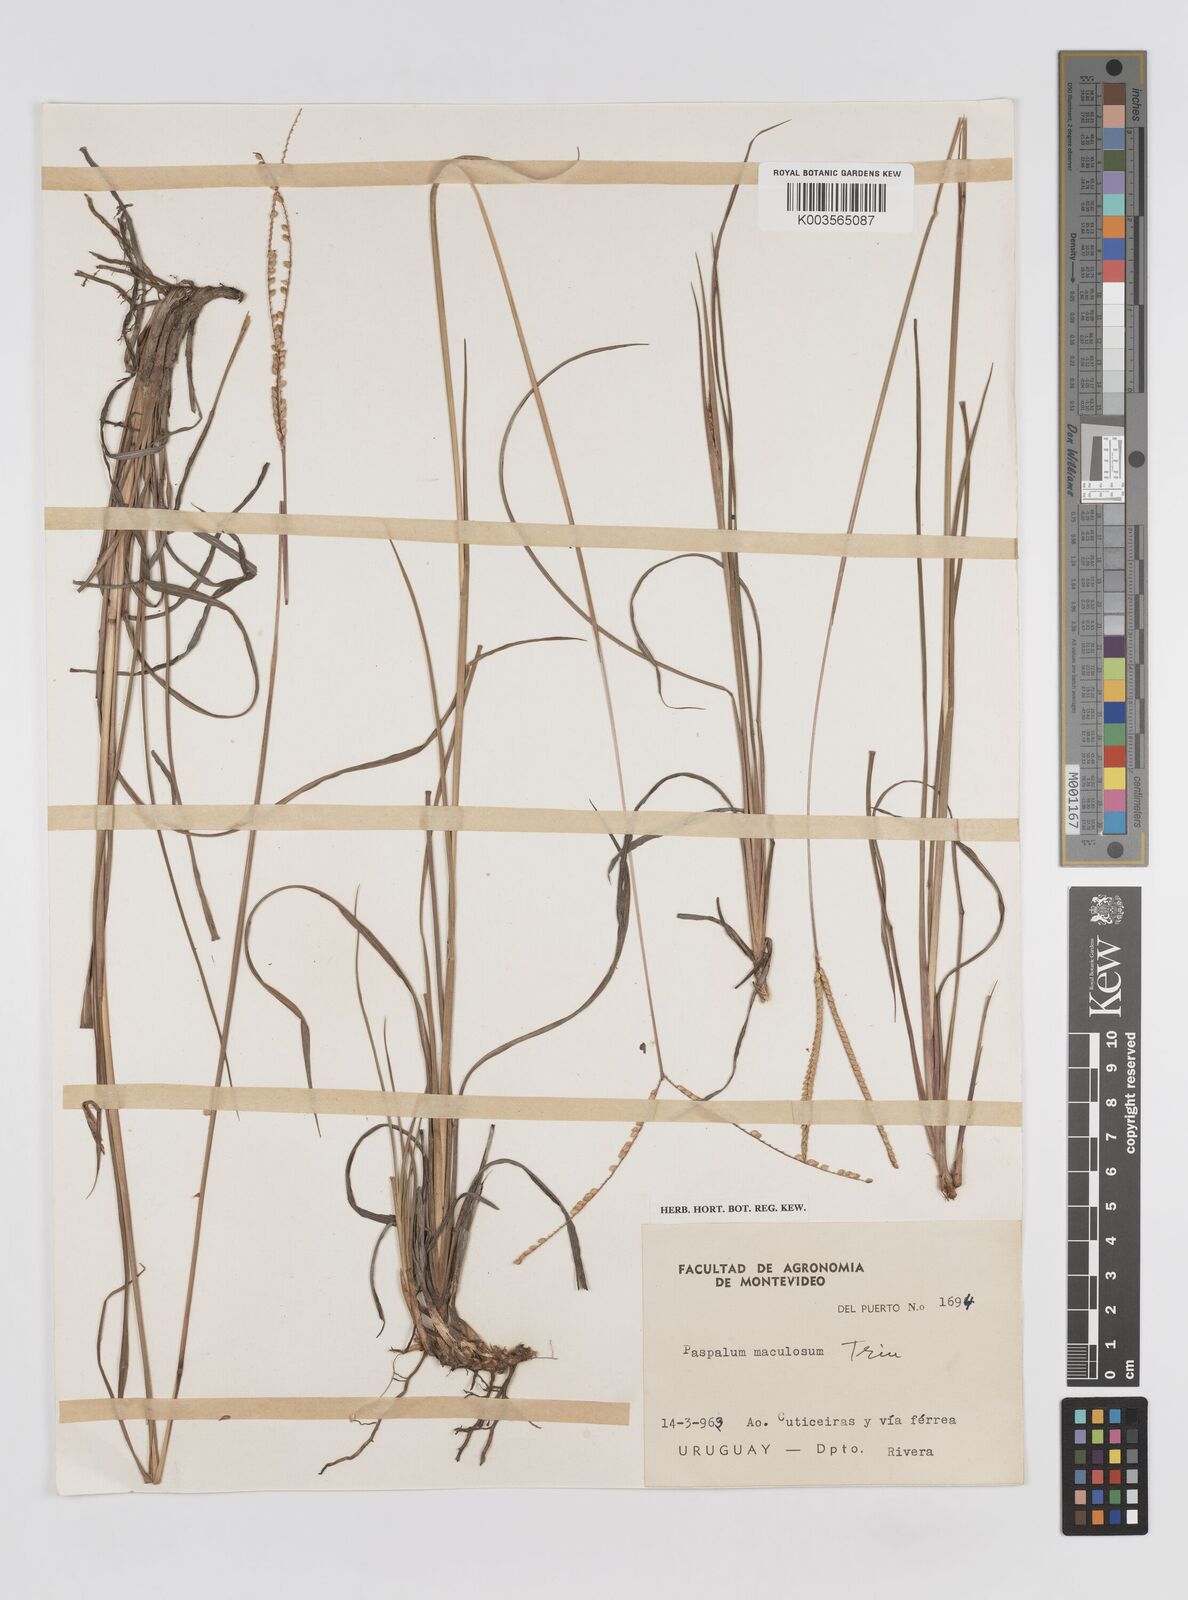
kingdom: Plantae
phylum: Tracheophyta
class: Liliopsida
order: Poales
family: Poaceae
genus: Paspalum
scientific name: Paspalum maculosum
